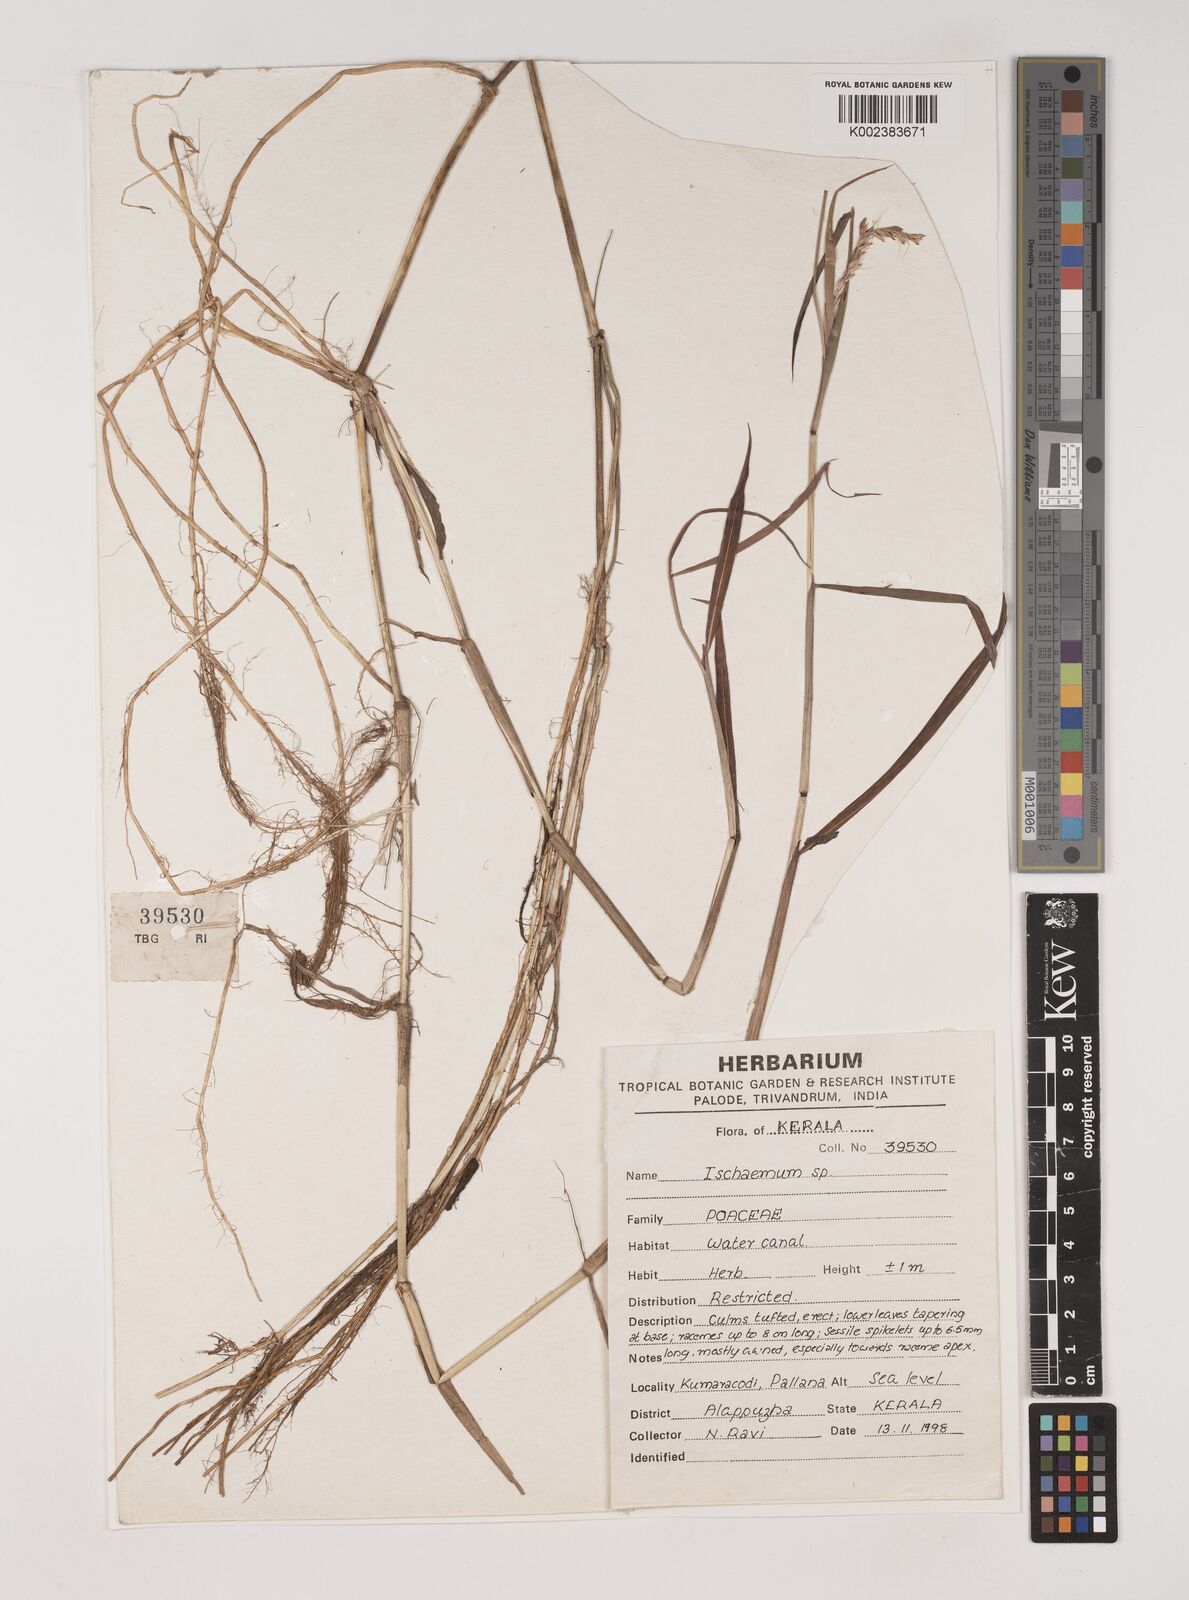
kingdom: Plantae
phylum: Tracheophyta
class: Liliopsida
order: Poales
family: Poaceae
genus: Ischaemum
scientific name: Ischaemum
